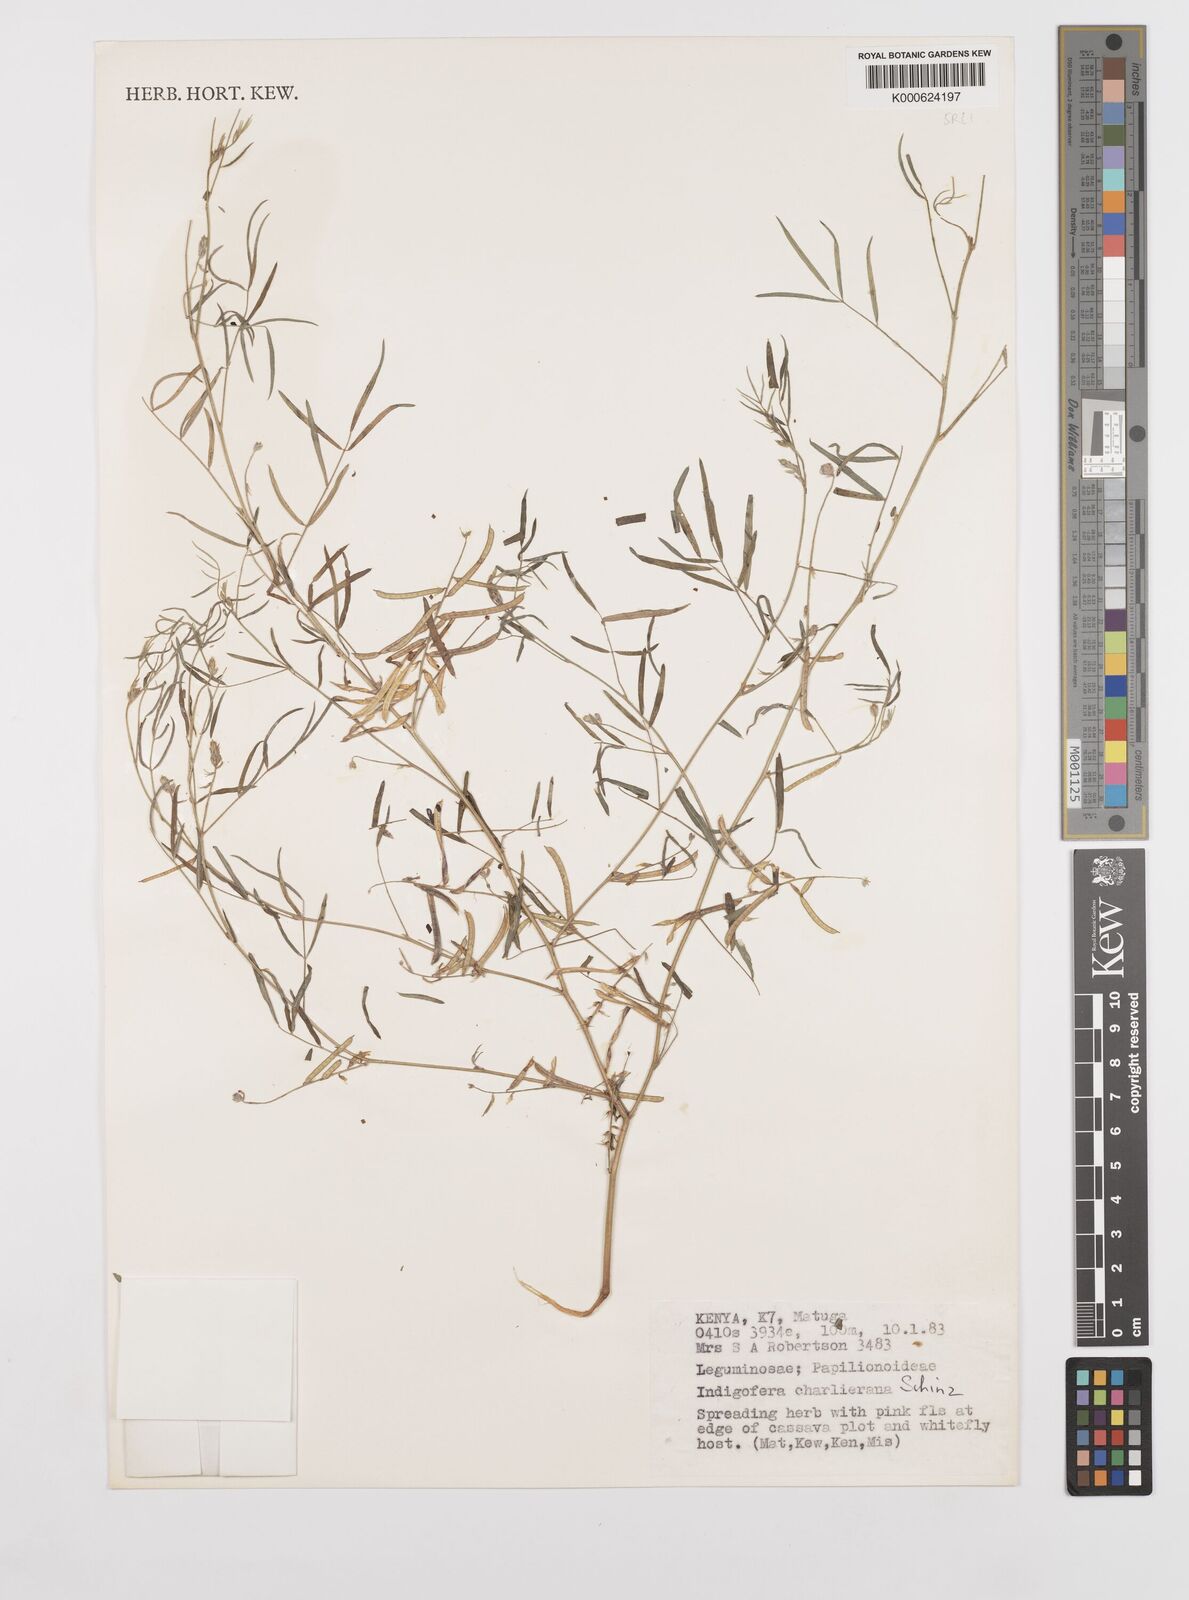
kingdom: Plantae
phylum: Tracheophyta
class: Magnoliopsida
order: Fabales
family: Fabaceae
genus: Indigofera
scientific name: Indigofera charlieriana
